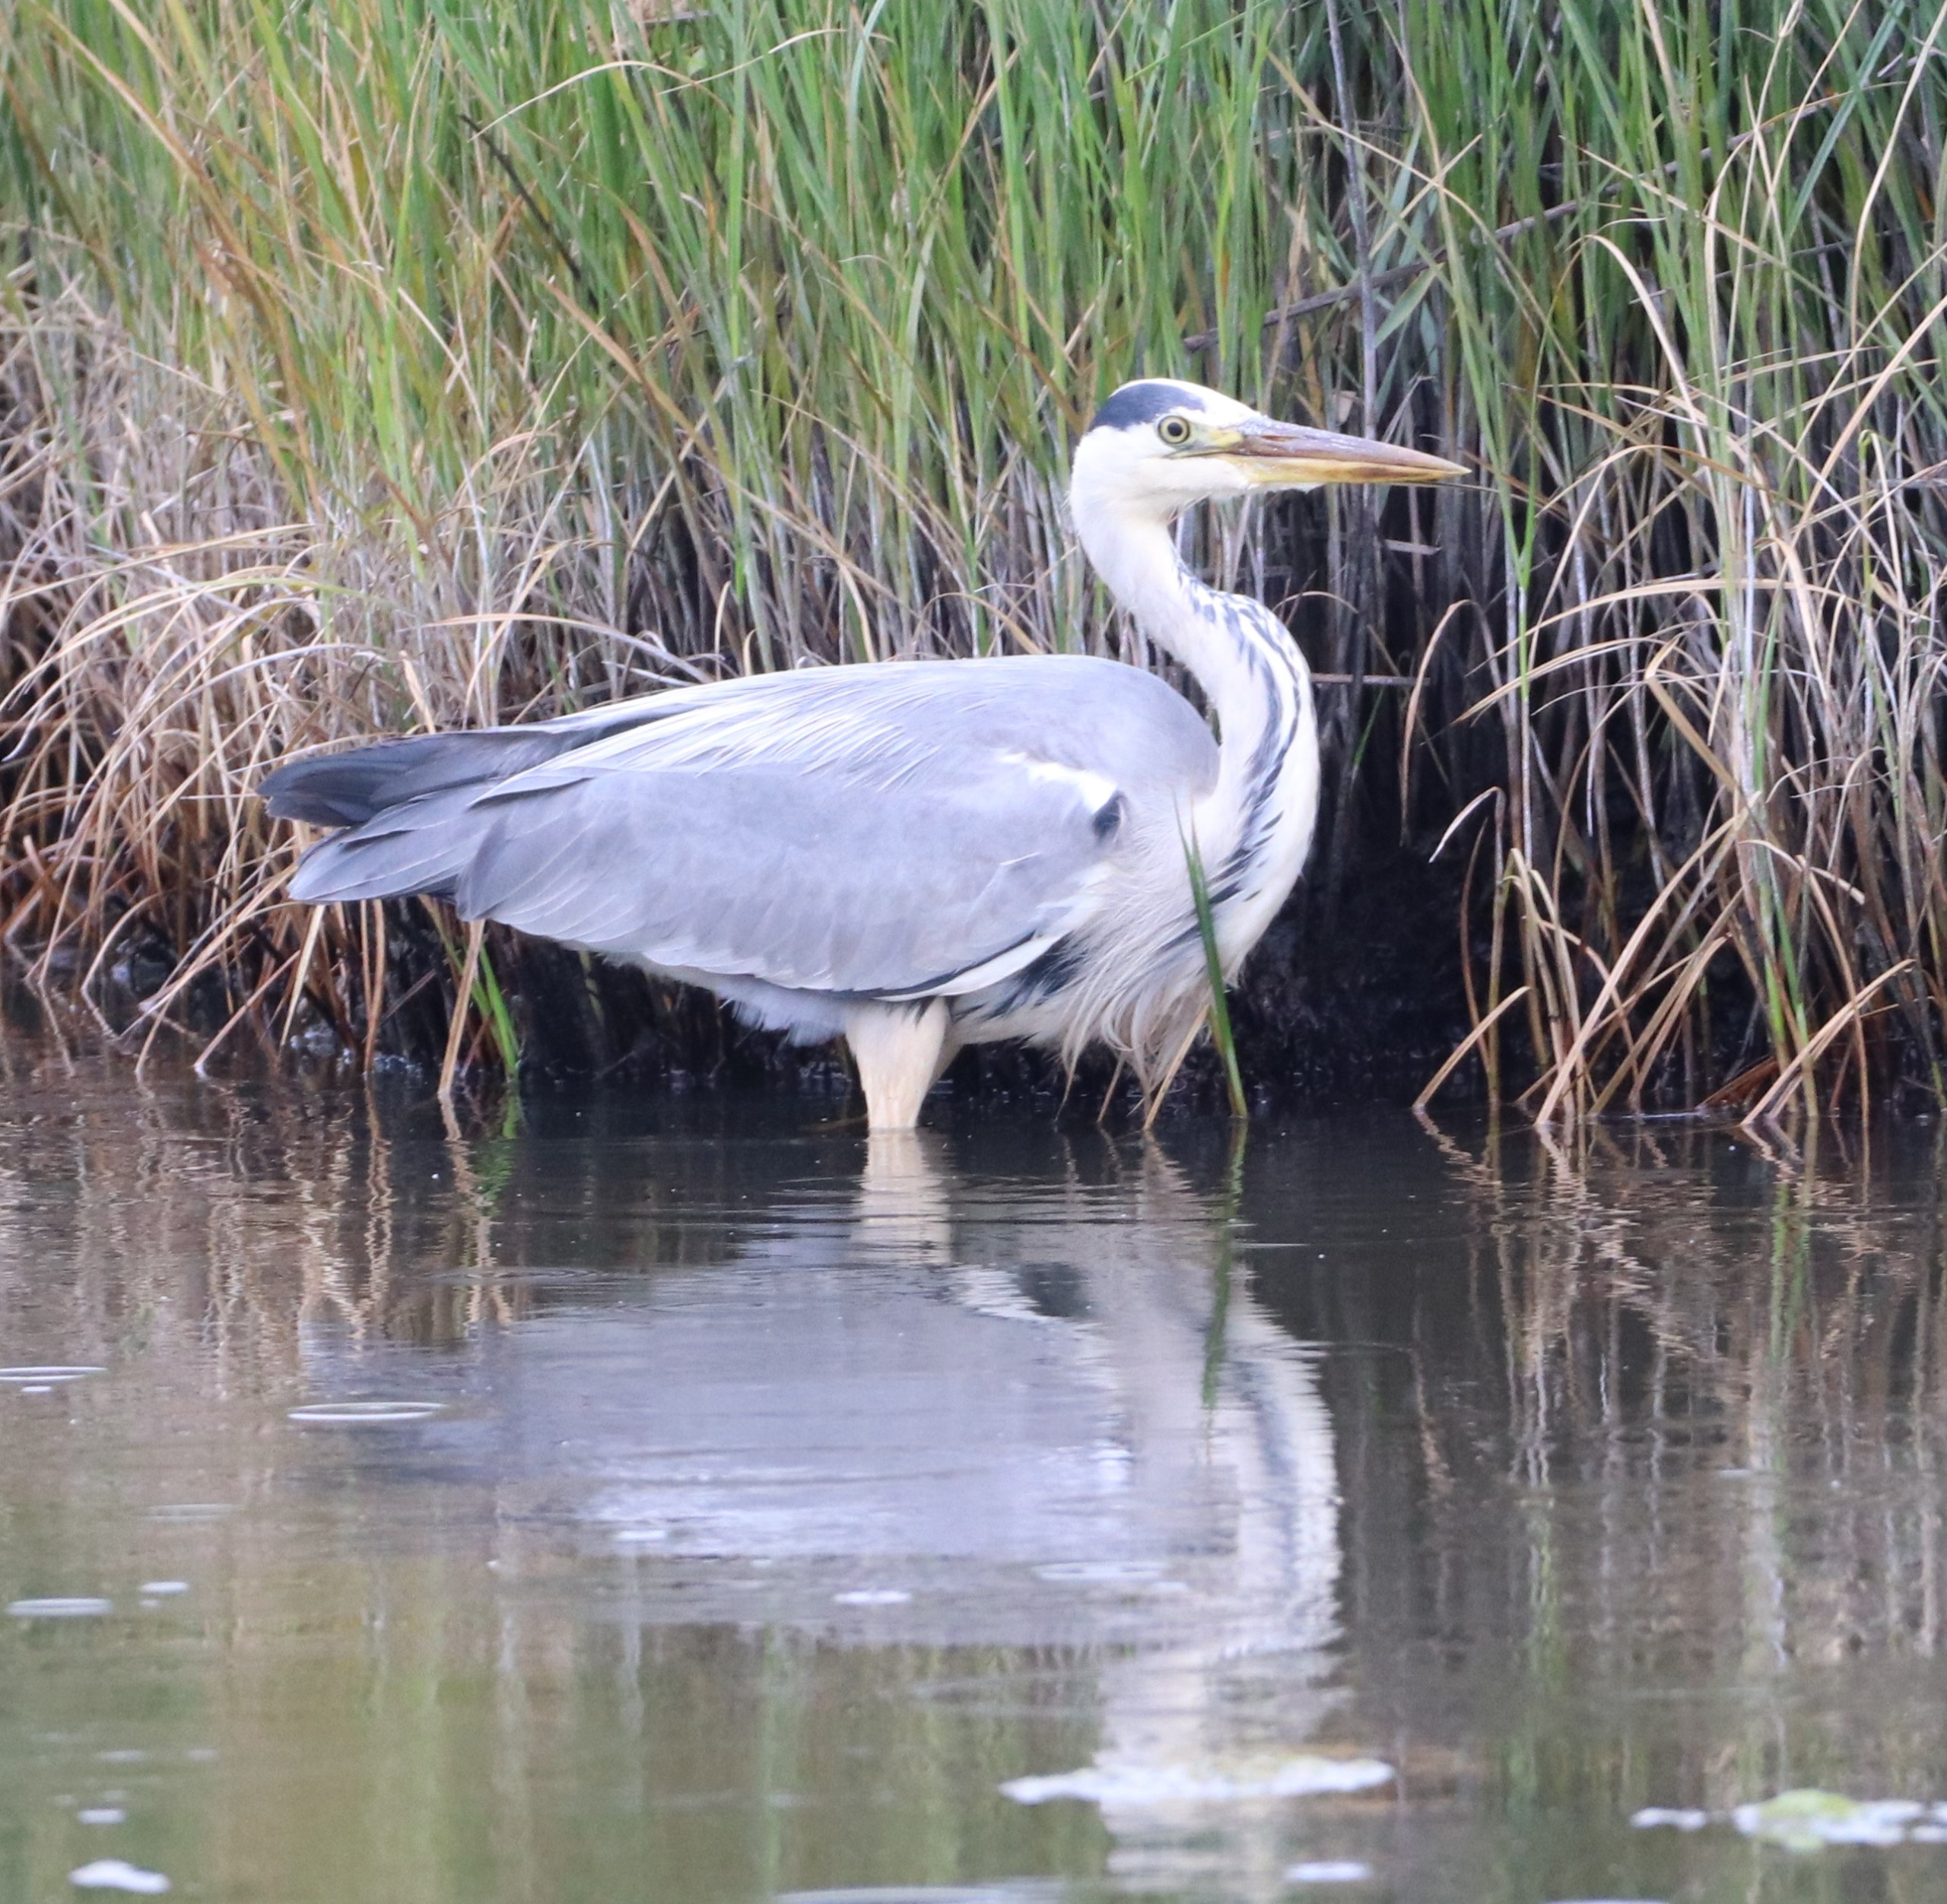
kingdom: Animalia
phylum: Chordata
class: Aves
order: Pelecaniformes
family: Ardeidae
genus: Ardea
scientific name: Ardea cinerea
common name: Fiskehejre
